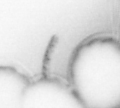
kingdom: Animalia
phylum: Annelida
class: Polychaeta
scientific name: Polychaeta
